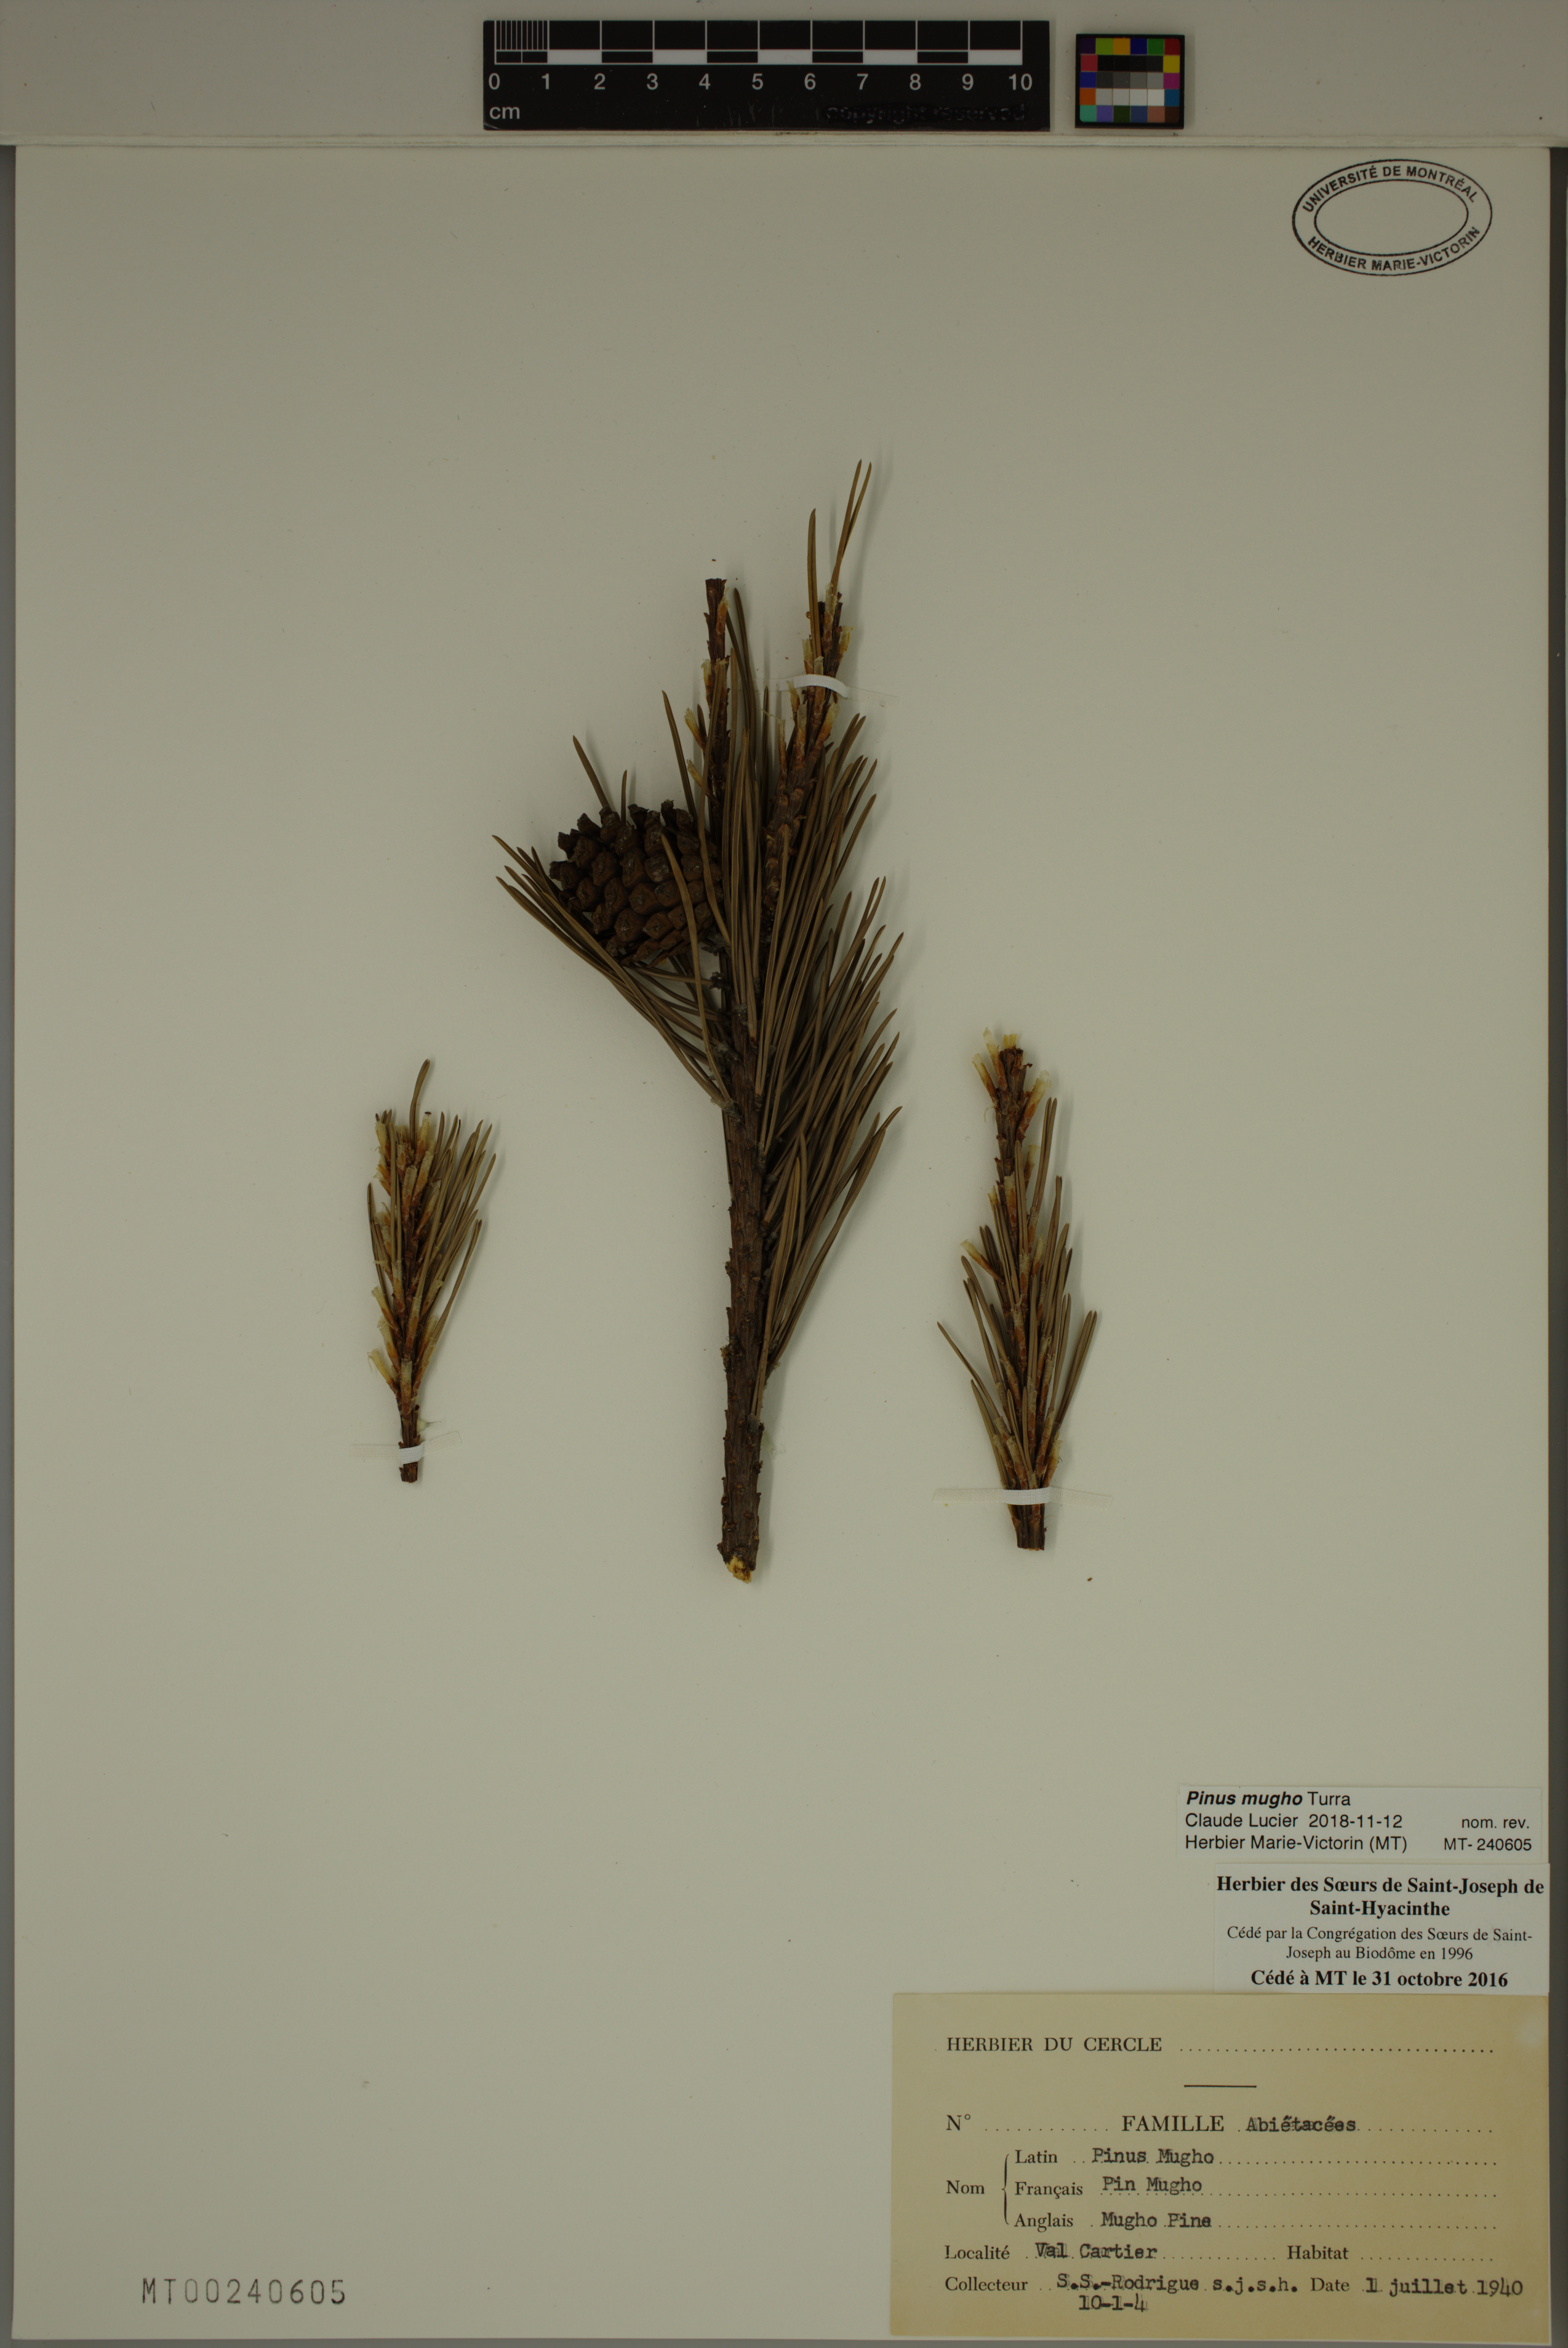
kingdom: Plantae
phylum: Tracheophyta
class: Pinopsida
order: Pinales
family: Pinaceae
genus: Pinus
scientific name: Pinus mugo
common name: Mugo pine
